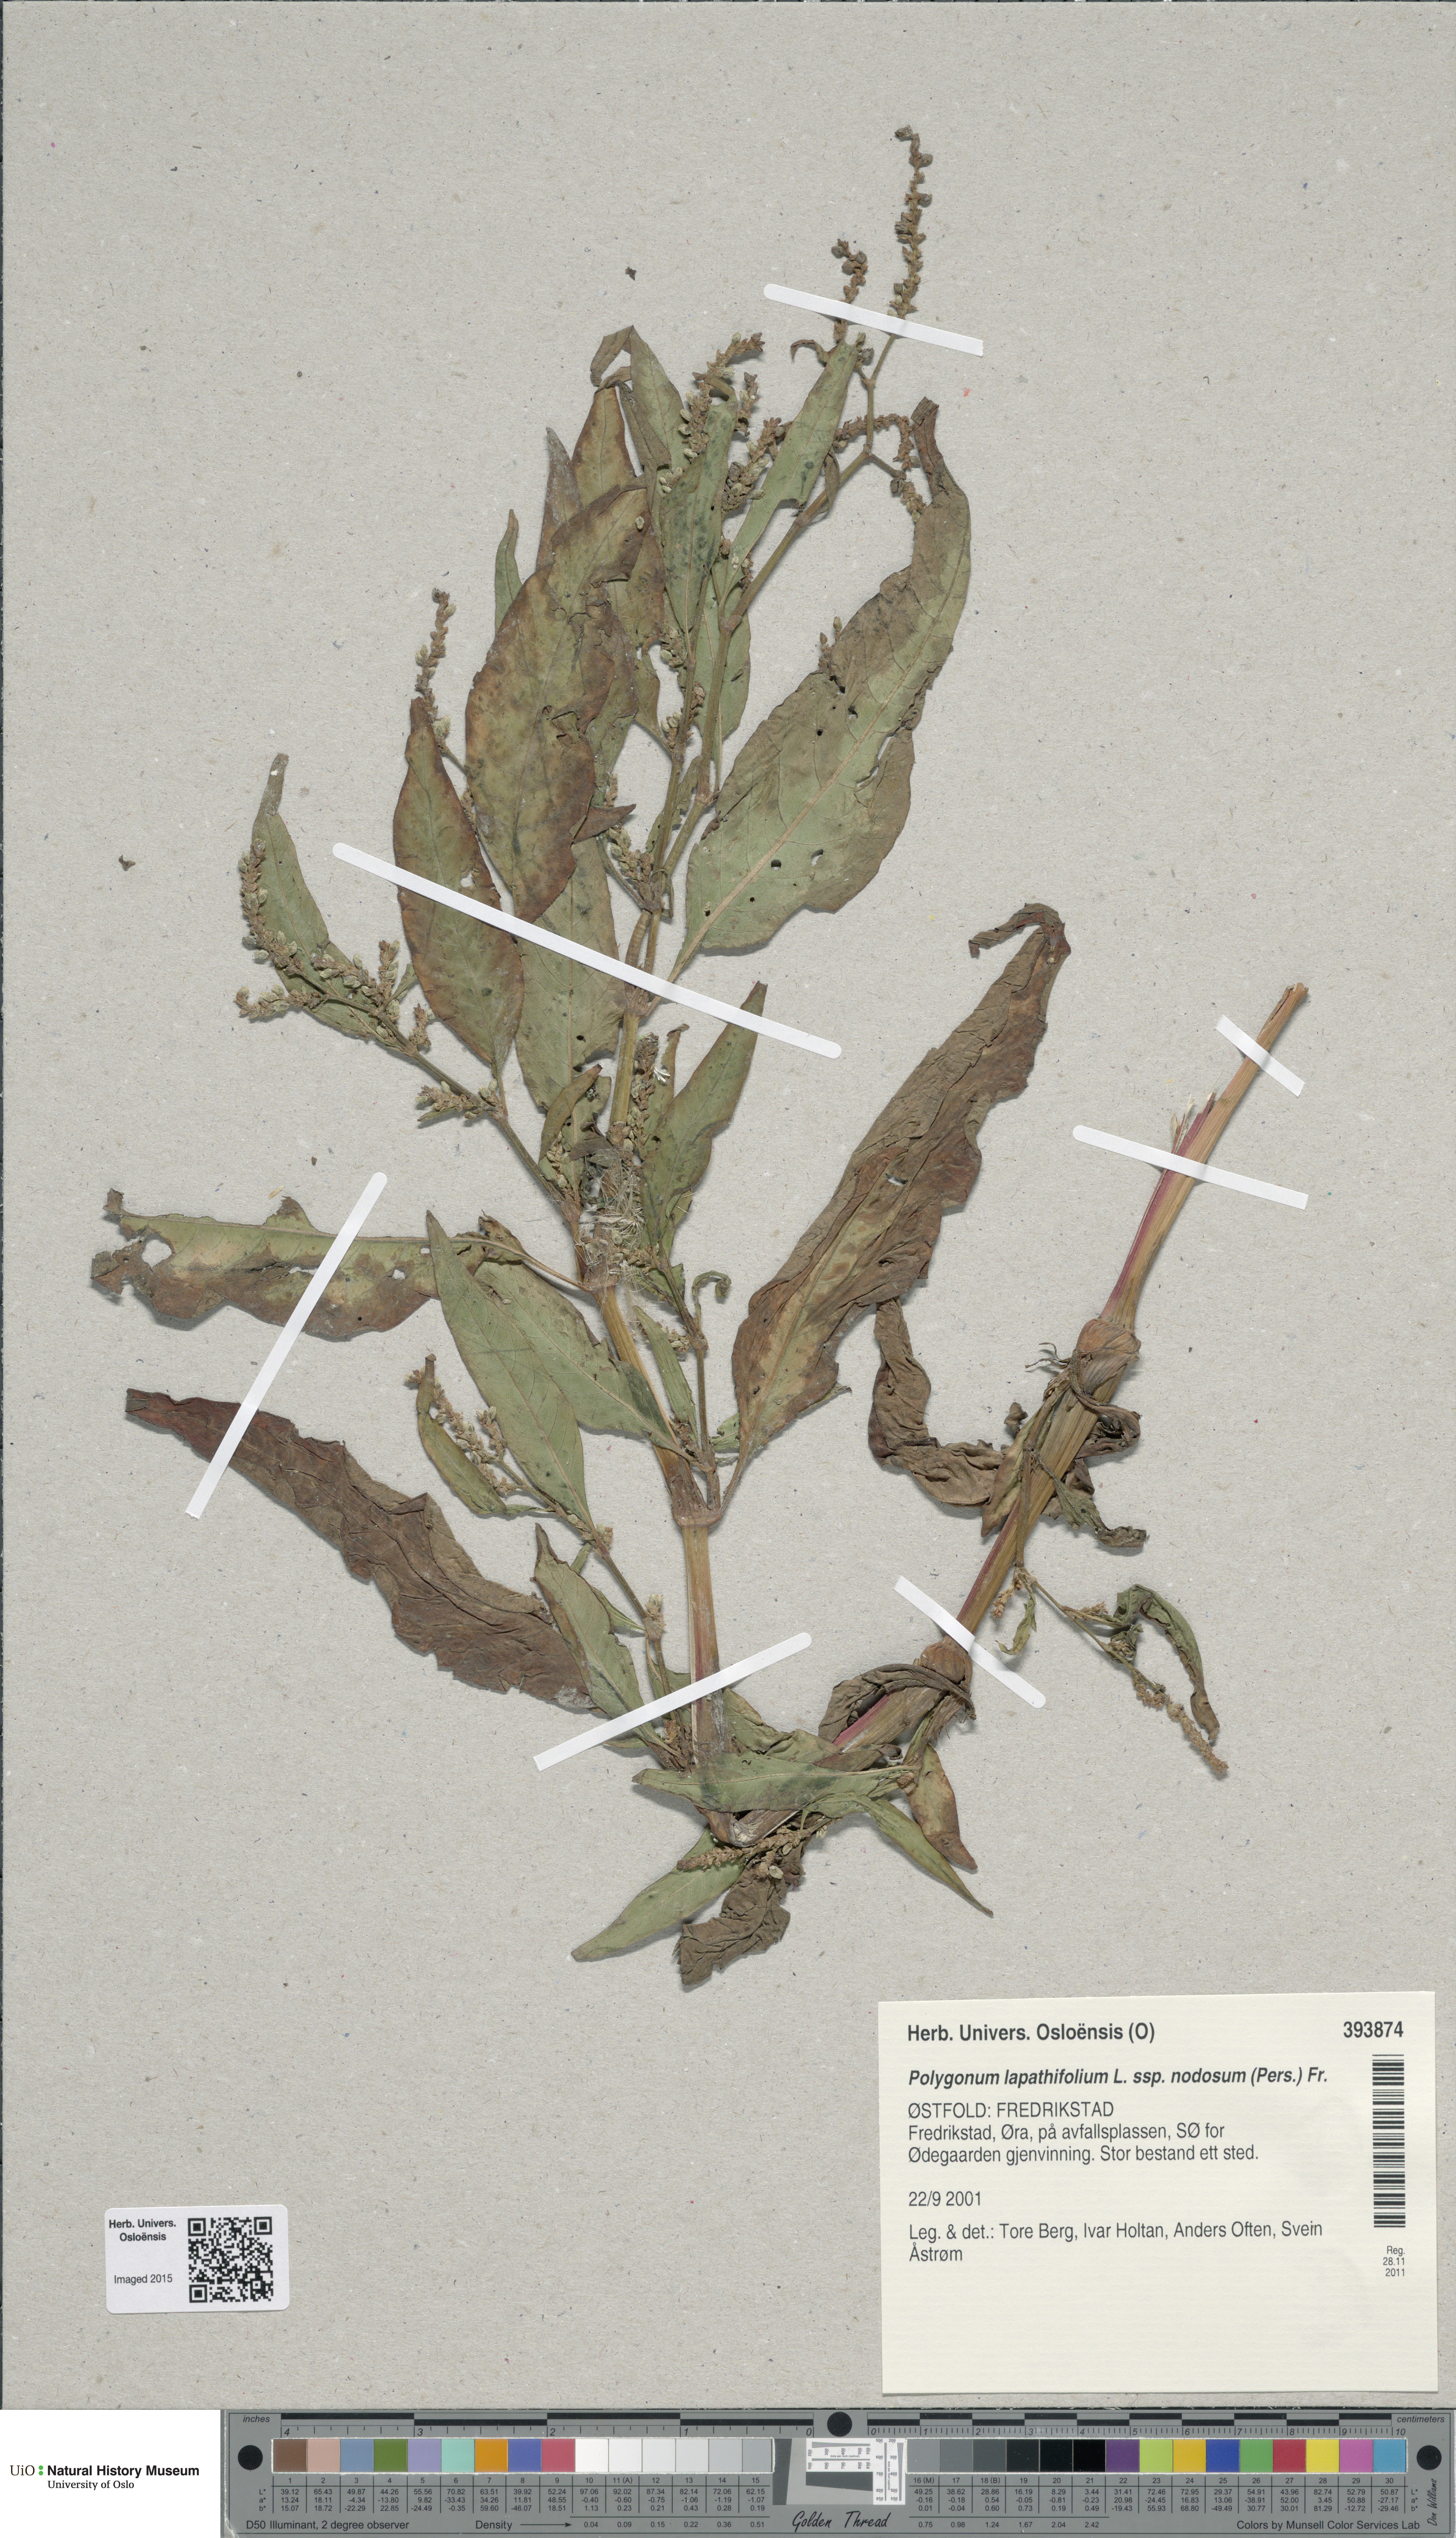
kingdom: Plantae
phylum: Tracheophyta
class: Magnoliopsida
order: Caryophyllales
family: Polygonaceae
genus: Persicaria
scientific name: Persicaria lapathifolia
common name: Curlytop knotweed
